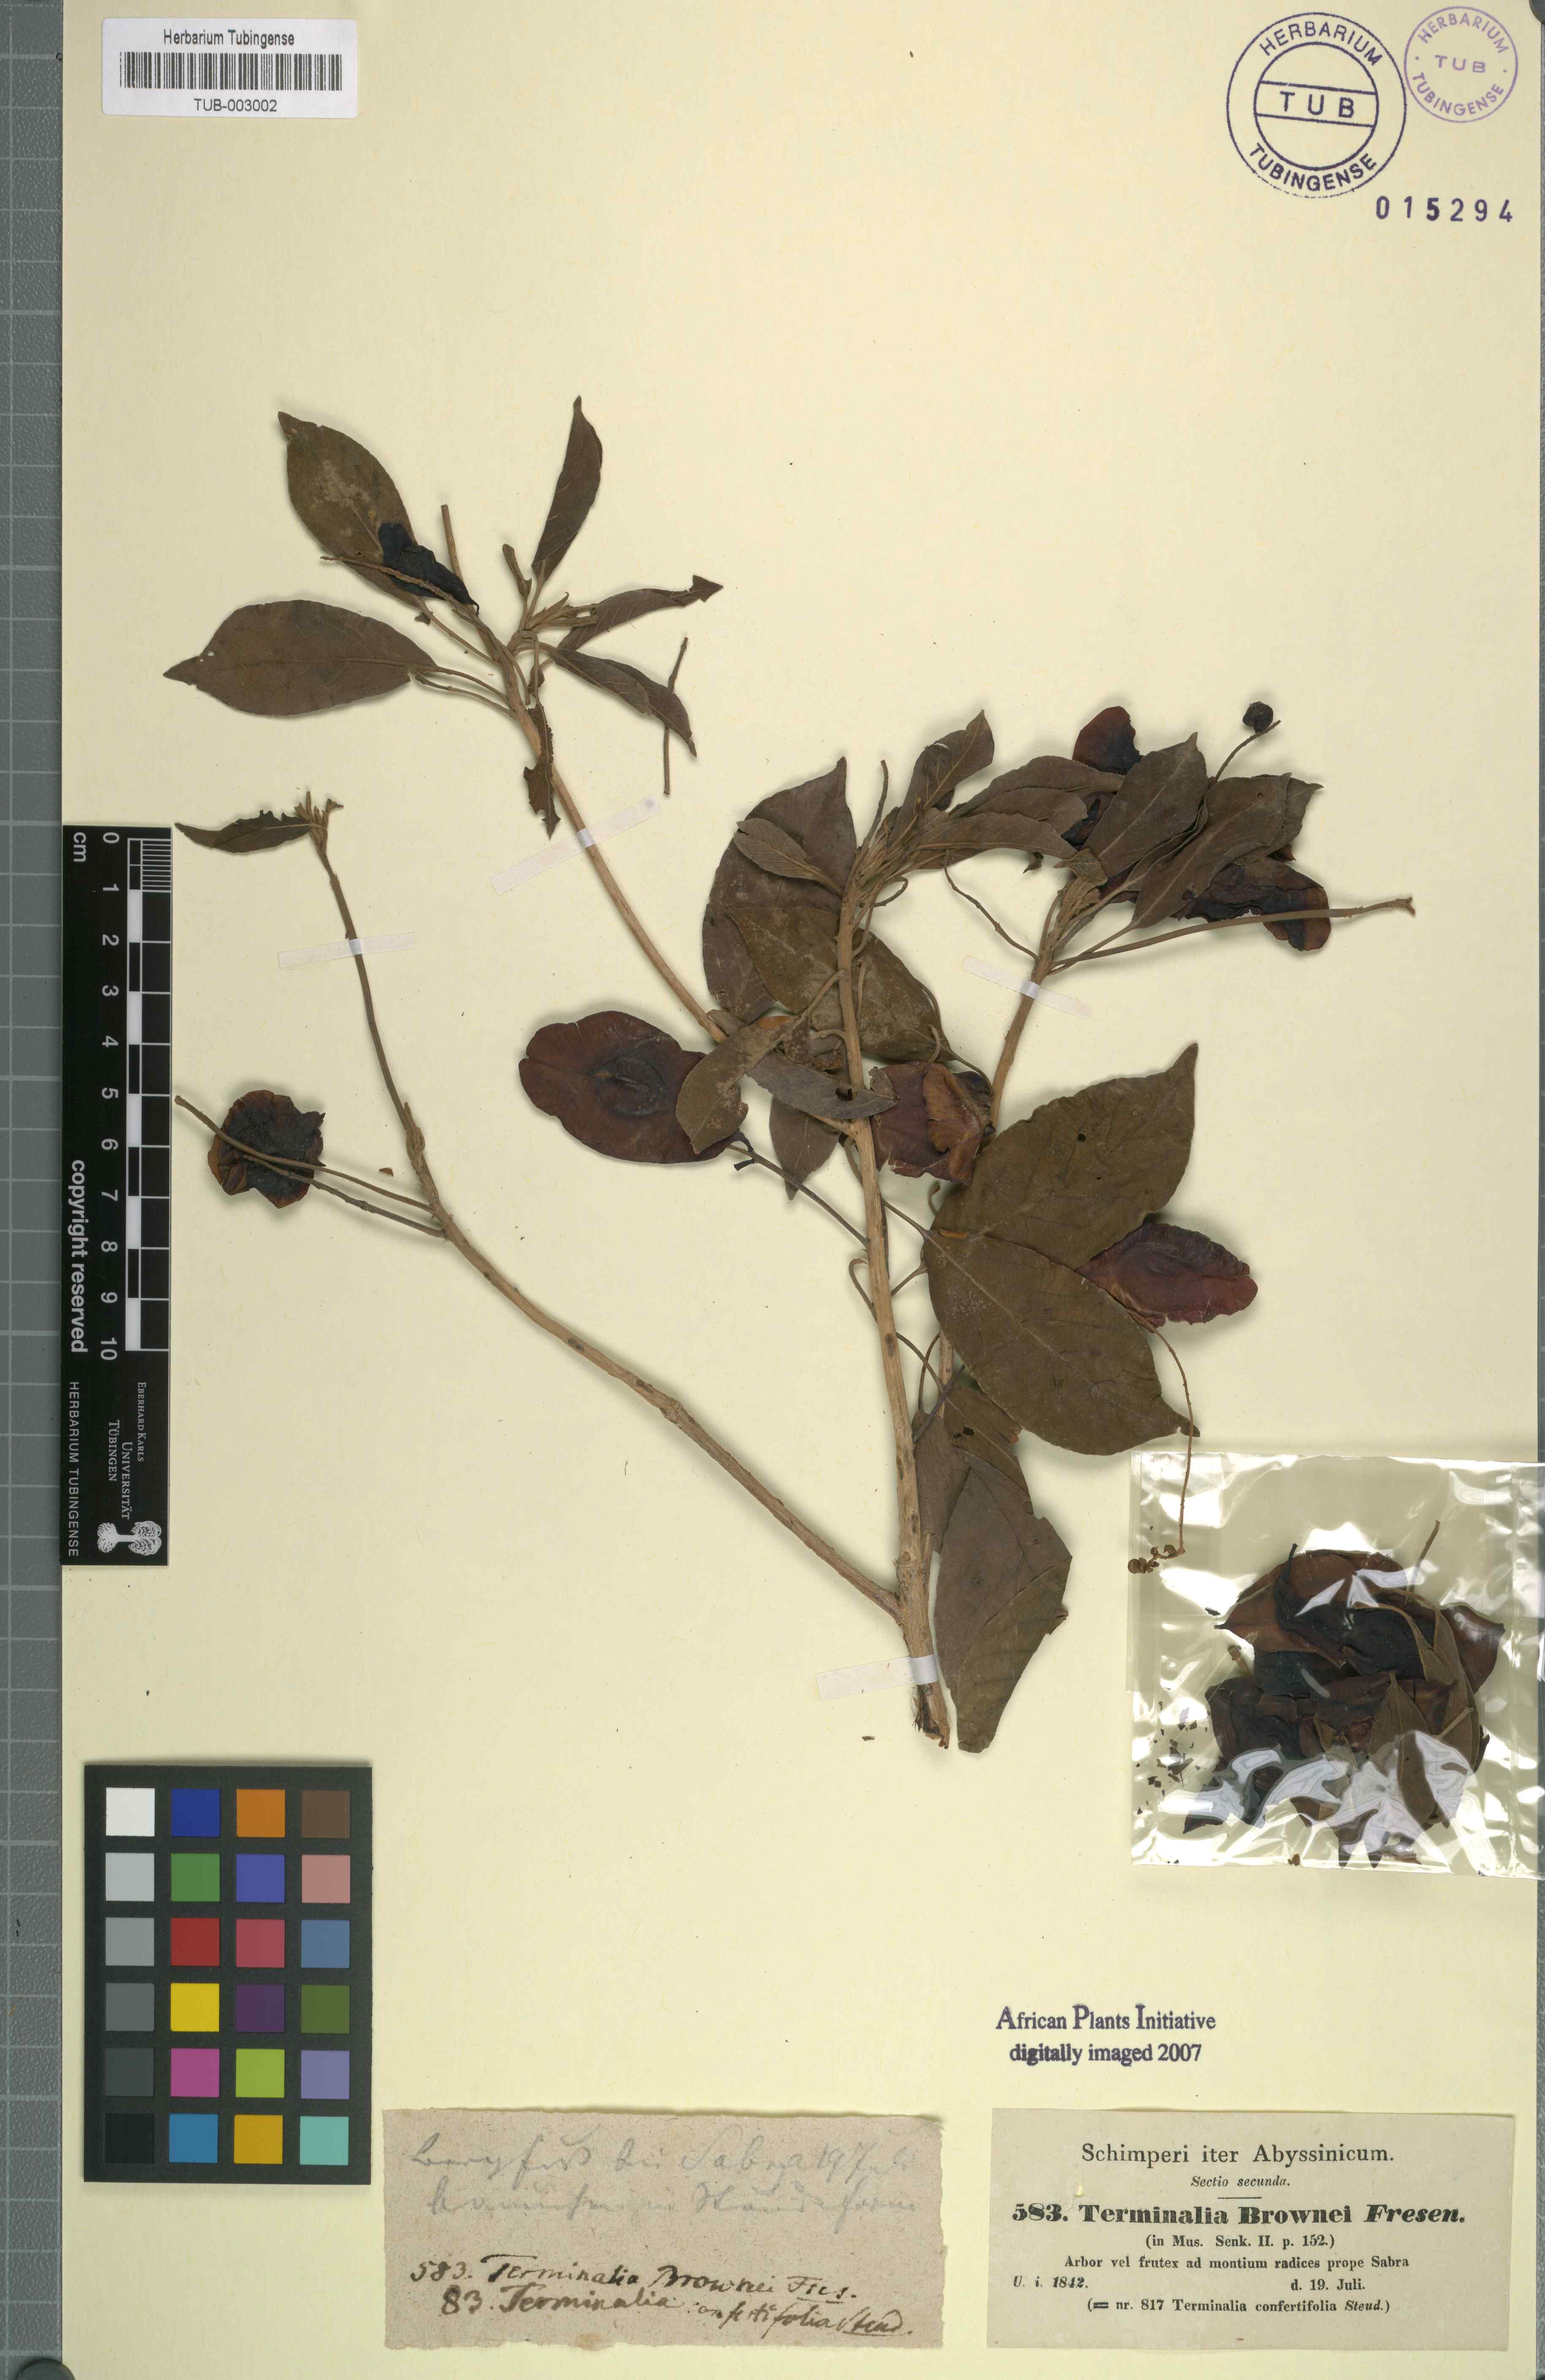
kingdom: Plantae
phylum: Tracheophyta
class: Magnoliopsida
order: Myrtales
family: Combretaceae
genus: Terminalia
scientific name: Terminalia brownii
